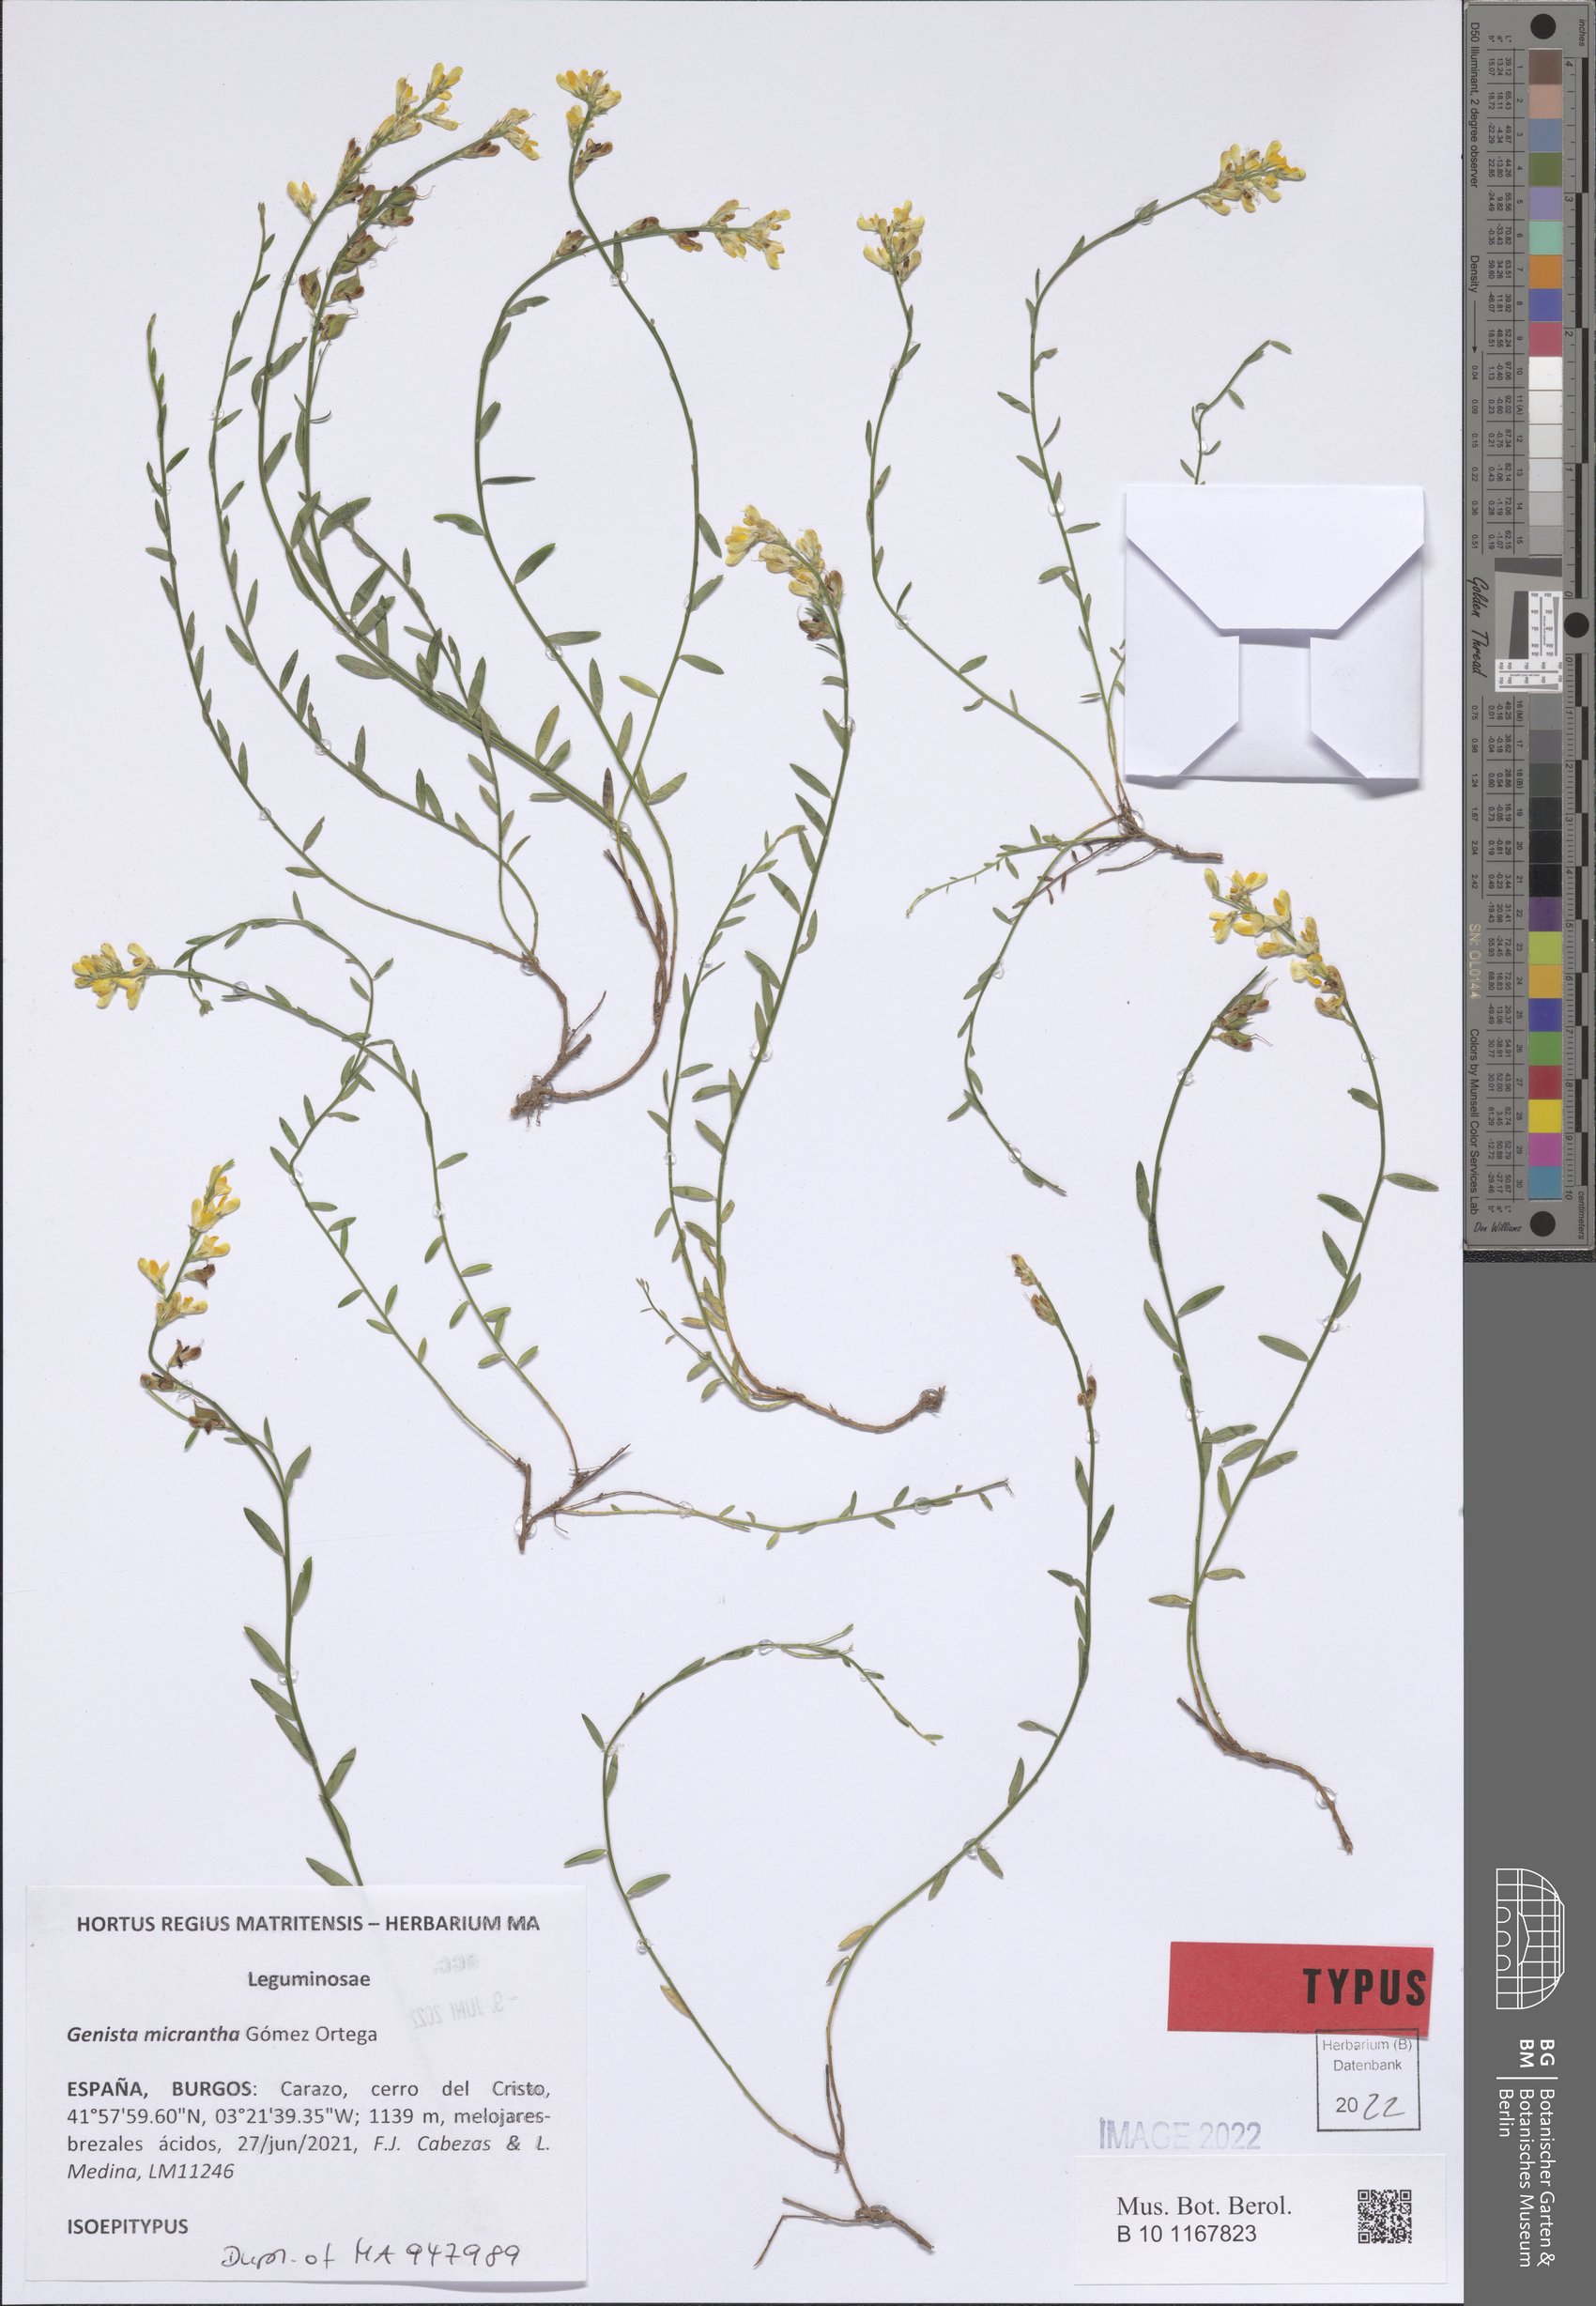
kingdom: Plantae
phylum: Tracheophyta
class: Magnoliopsida
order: Fabales
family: Fabaceae
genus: Genista
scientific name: Genista micrantha
